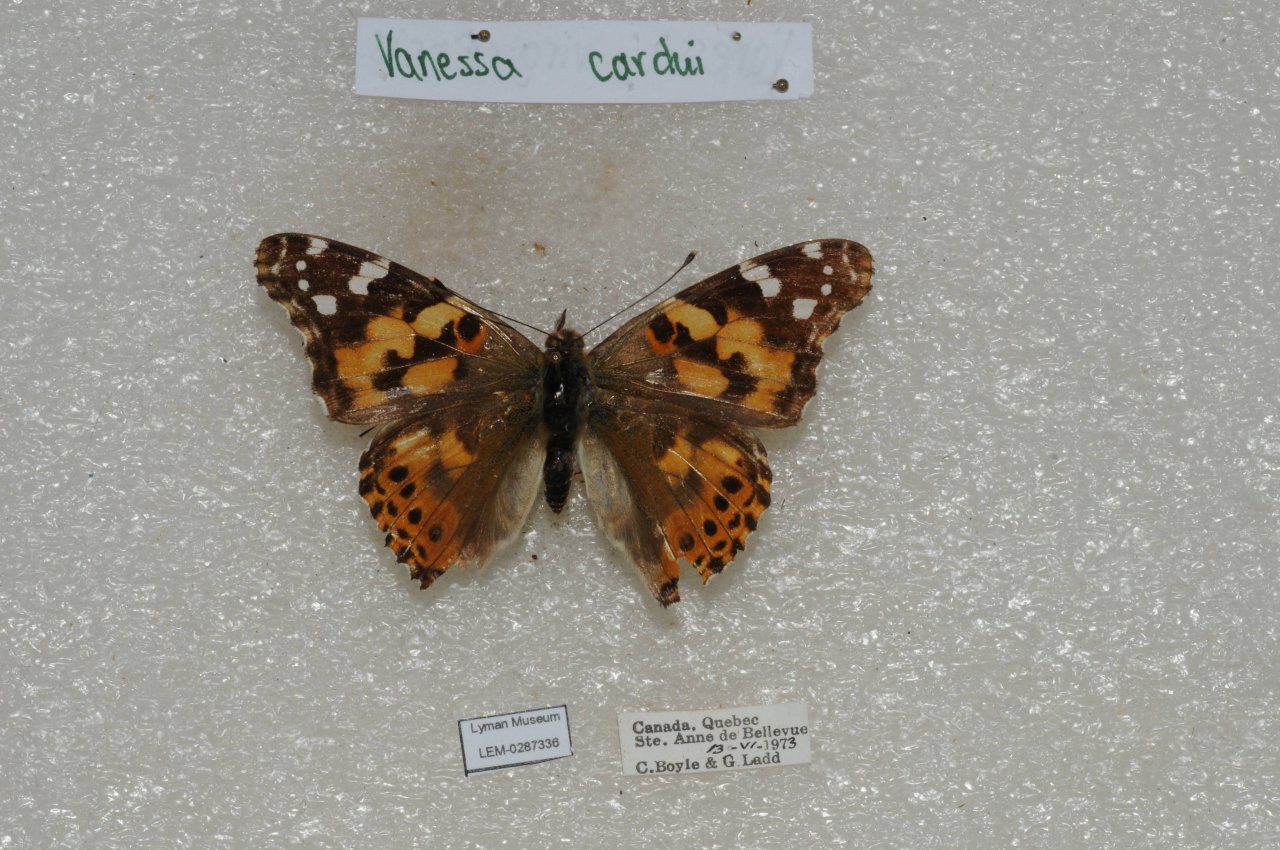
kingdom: Animalia
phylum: Arthropoda
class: Insecta
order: Lepidoptera
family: Nymphalidae
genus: Vanessa
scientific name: Vanessa cardui
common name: Painted Lady
